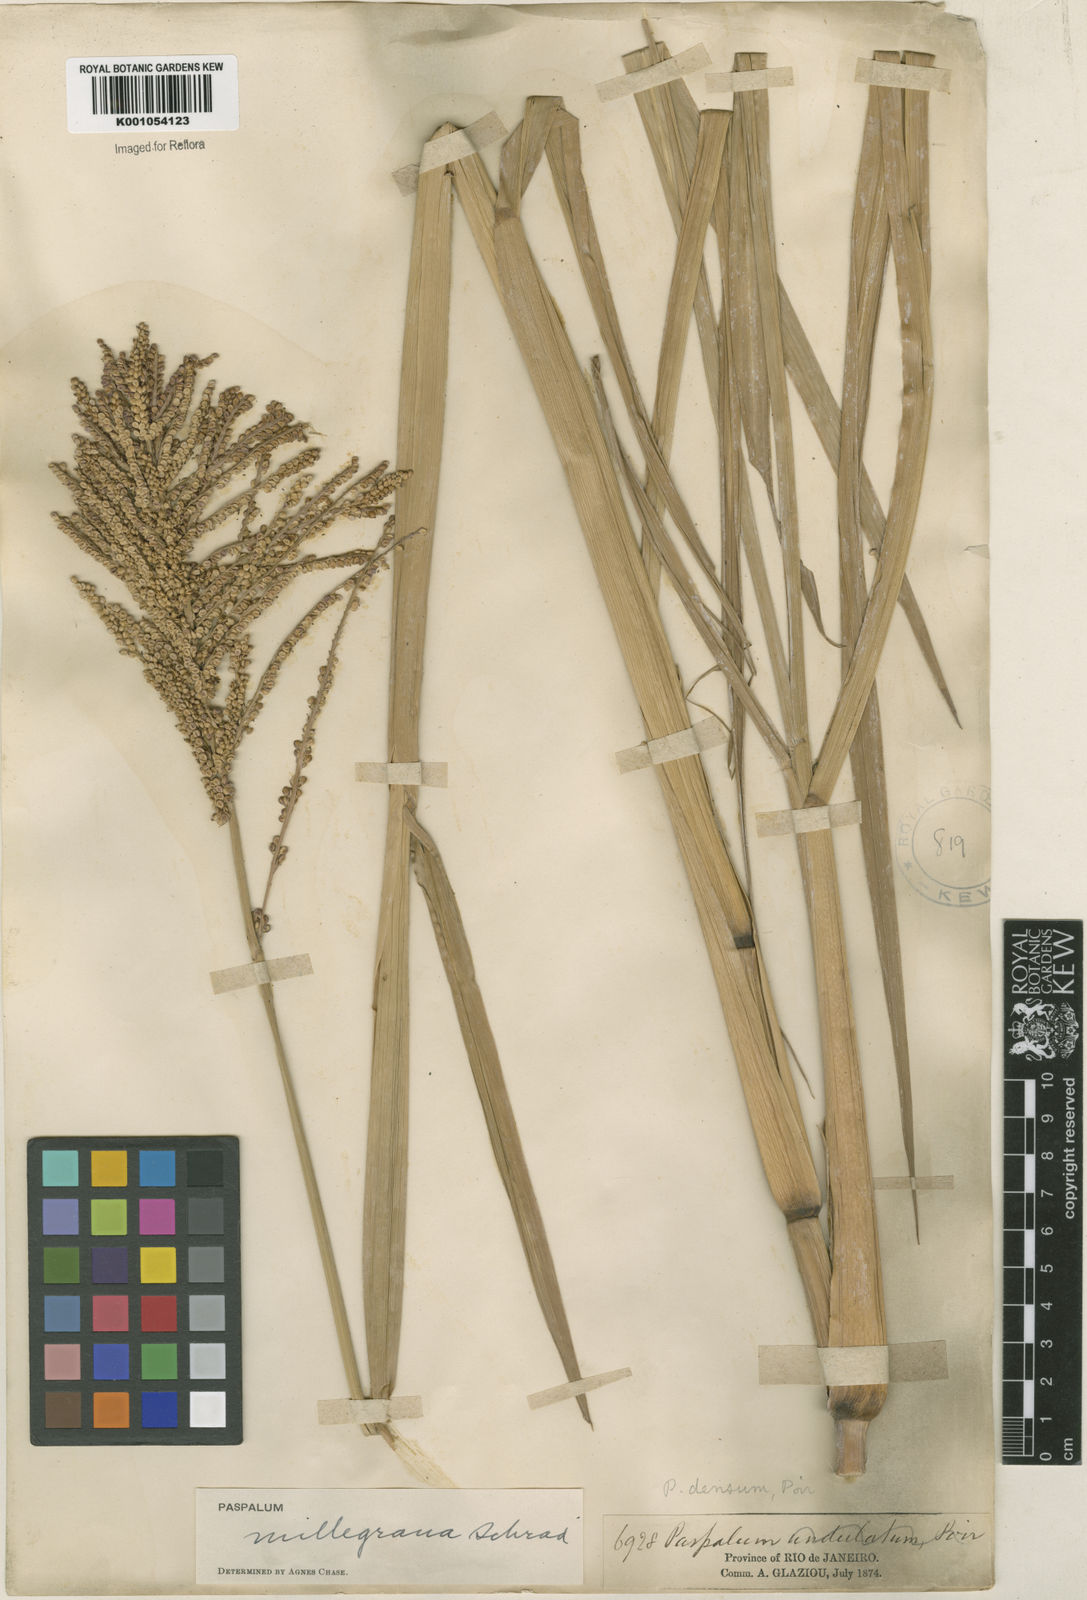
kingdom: Plantae
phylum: Tracheophyta
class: Liliopsida
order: Poales
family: Poaceae
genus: Paspalum
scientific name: Paspalum
